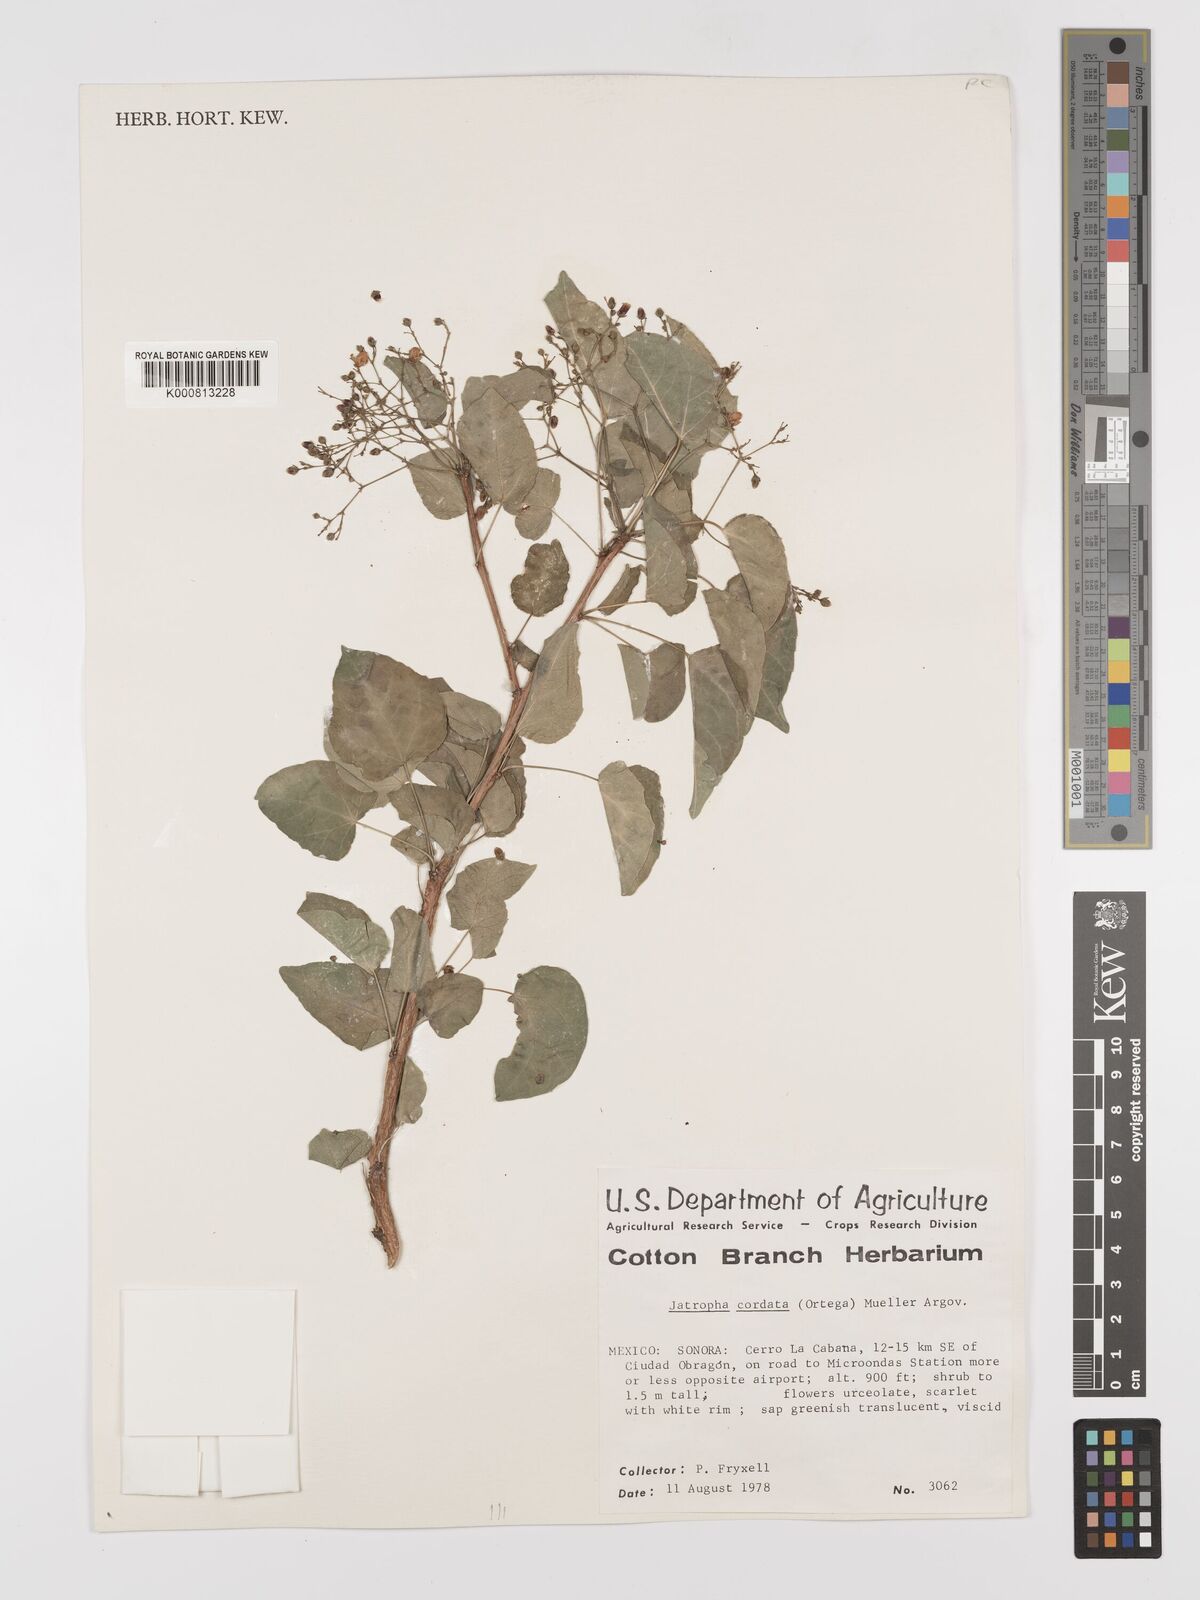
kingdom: Plantae
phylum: Tracheophyta
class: Magnoliopsida
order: Malpighiales
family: Euphorbiaceae
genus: Jatropha
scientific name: Jatropha
